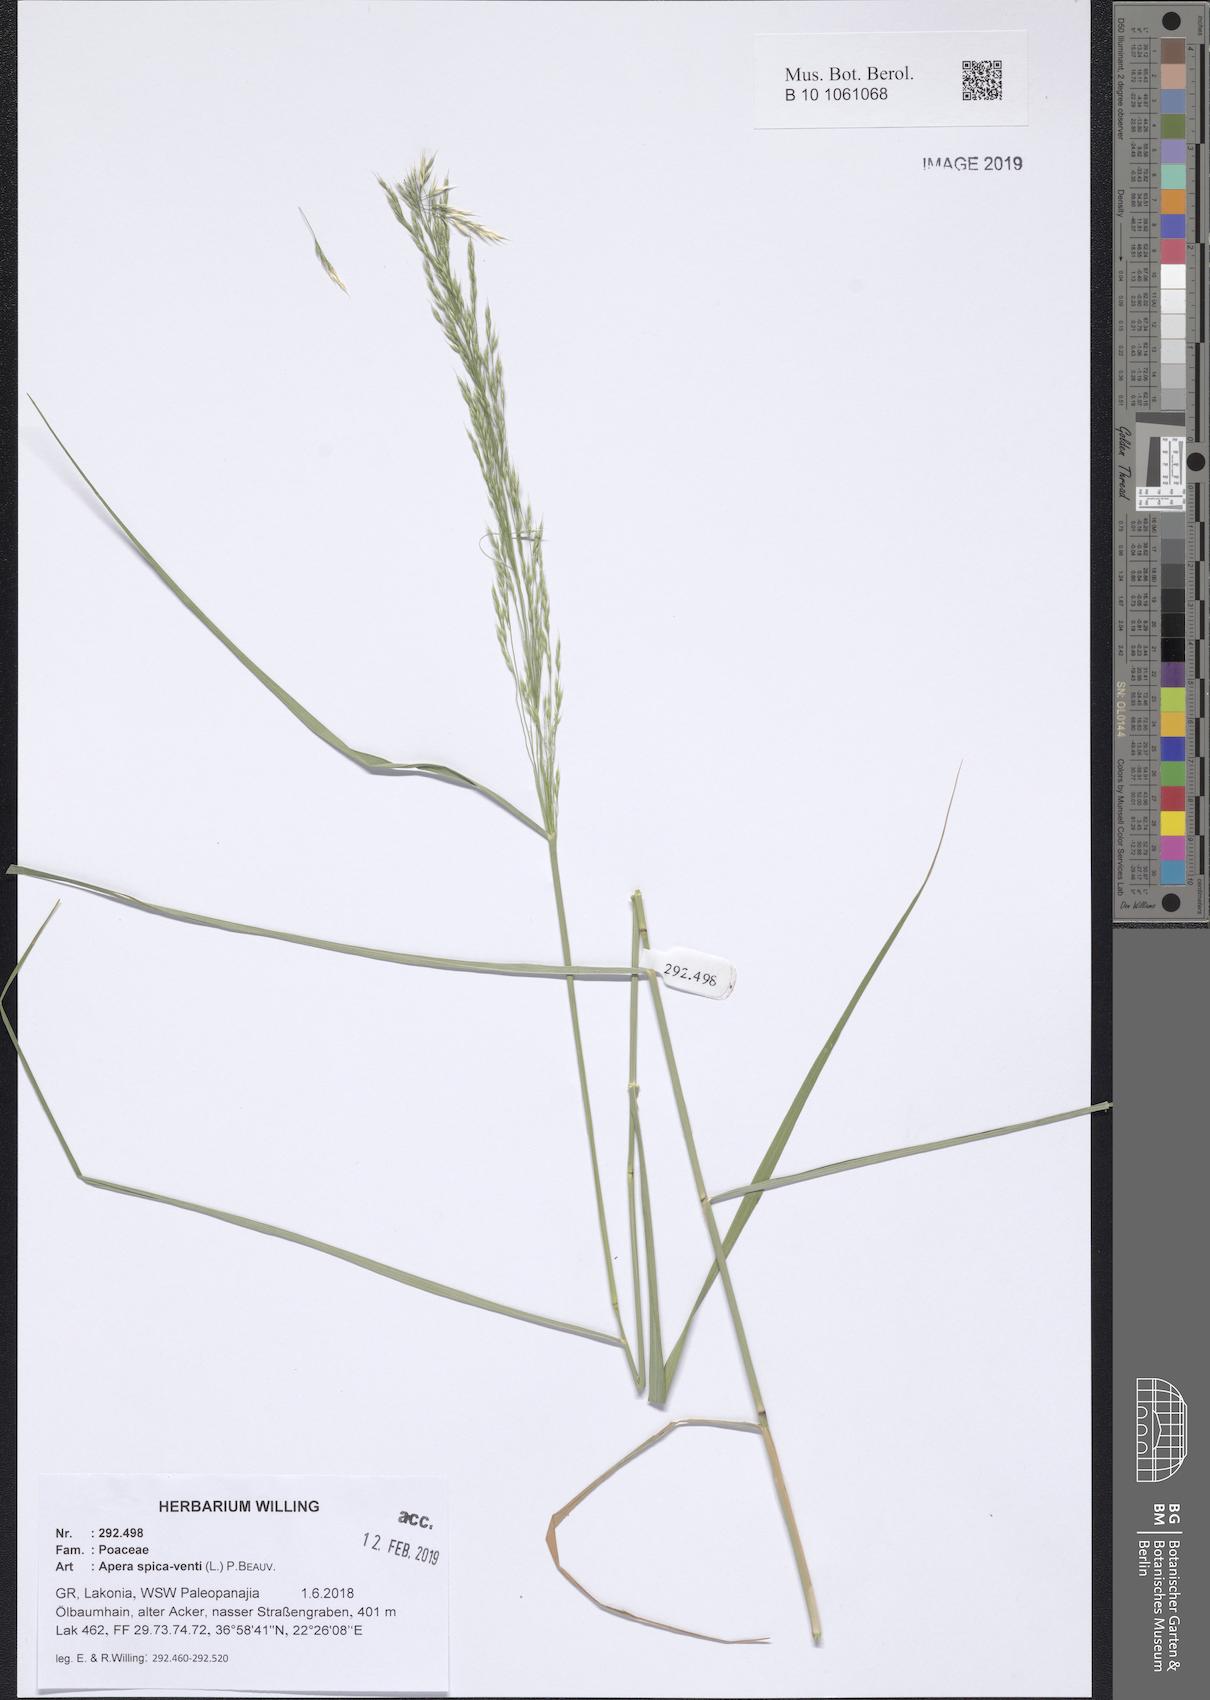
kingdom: Plantae
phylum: Tracheophyta
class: Liliopsida
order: Poales
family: Poaceae
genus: Apera
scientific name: Apera spica-venti
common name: Loose silky-bent
